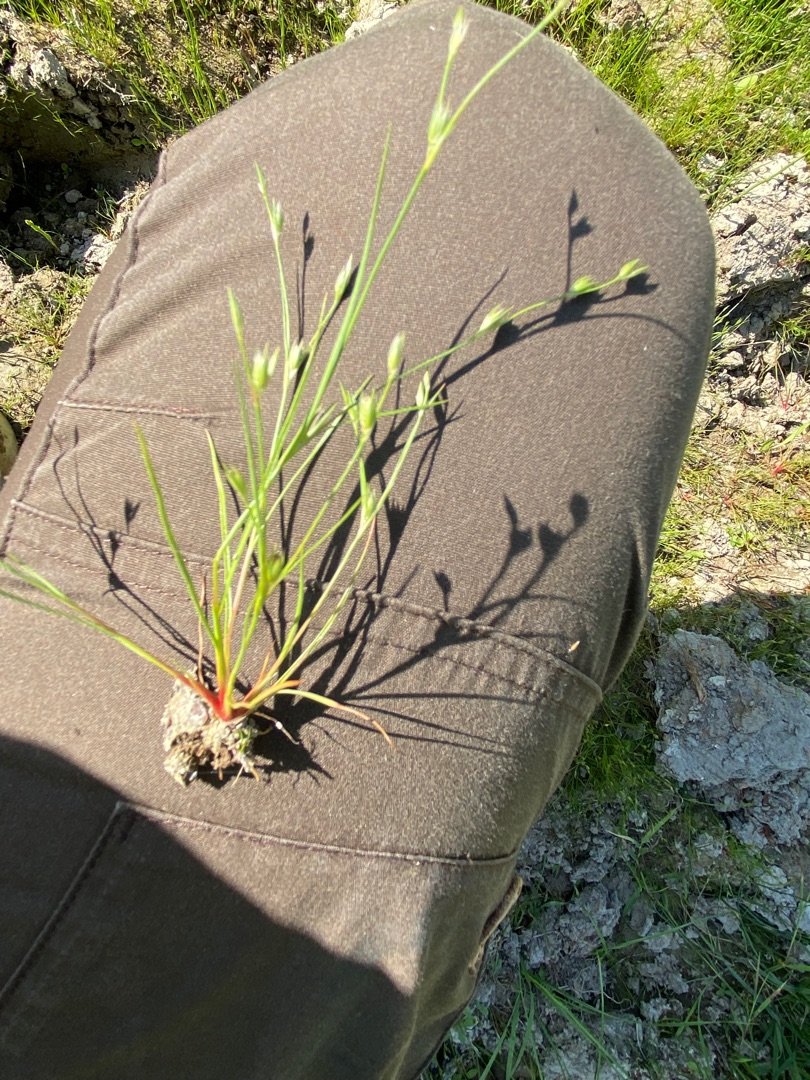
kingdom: Plantae
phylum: Tracheophyta
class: Liliopsida
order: Poales
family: Juncaceae
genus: Juncus
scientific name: Juncus bufonius
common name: Tudse-siv
